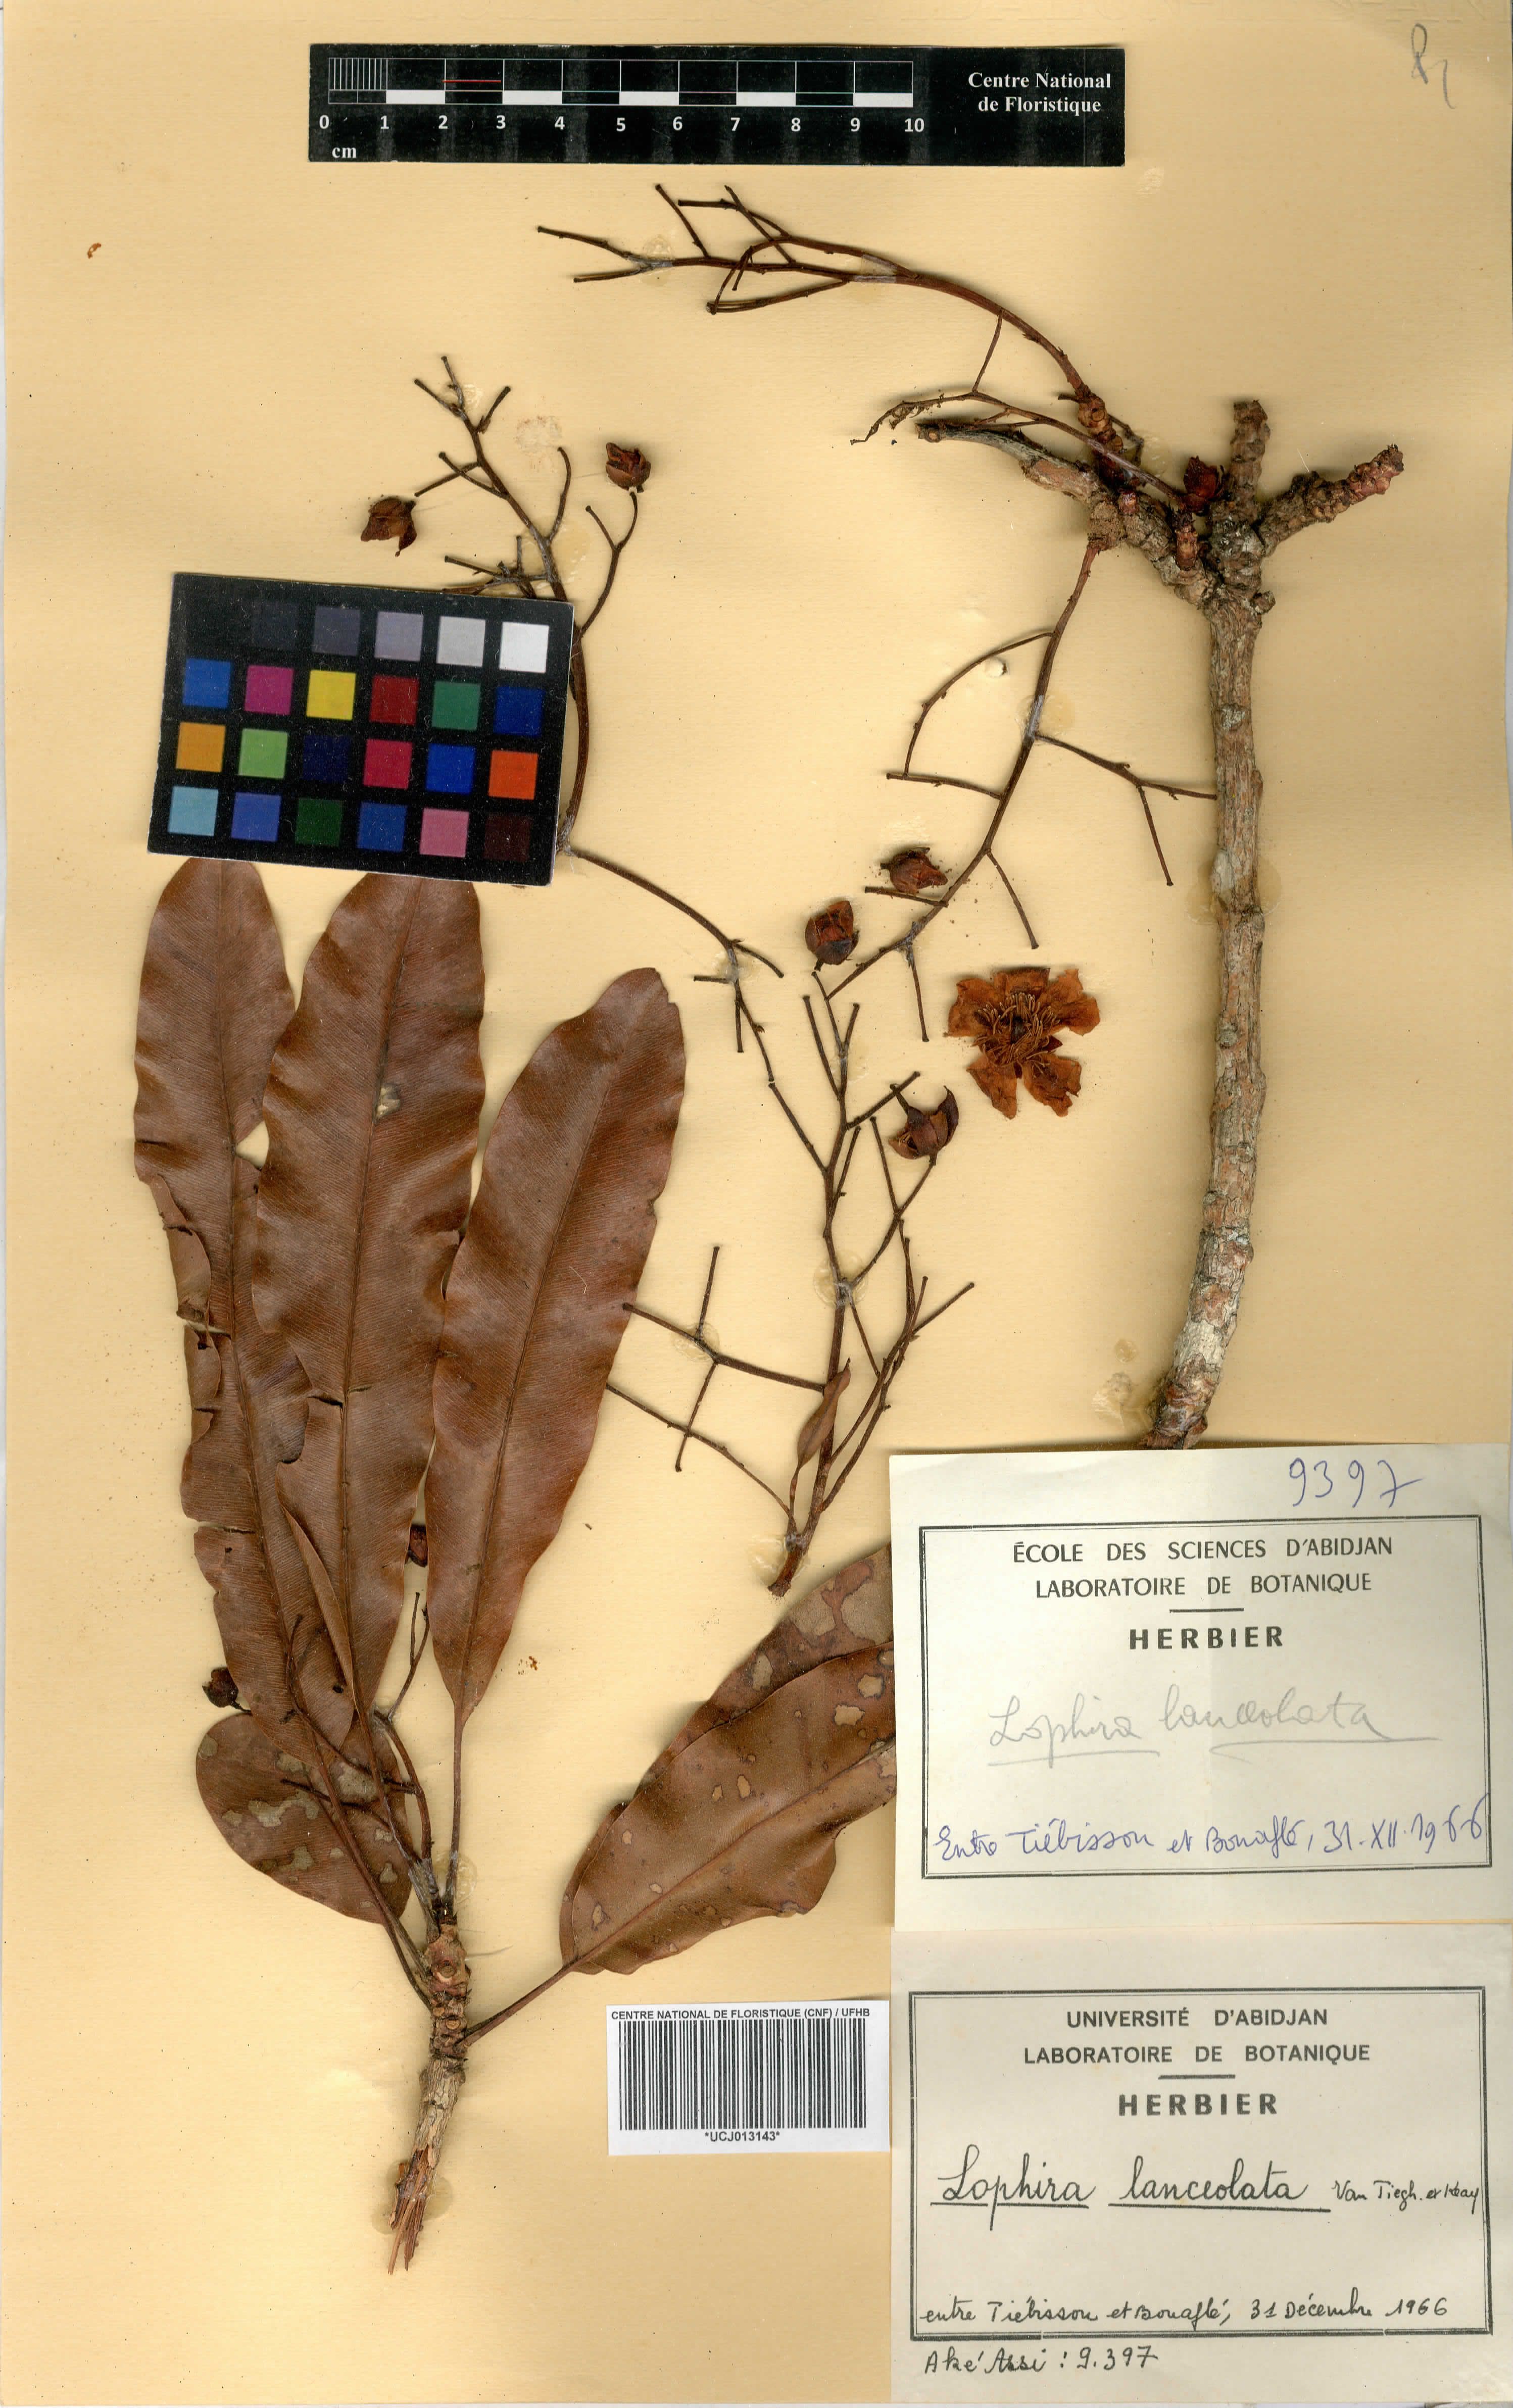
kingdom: Plantae
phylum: Tracheophyta
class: Magnoliopsida
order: Malpighiales
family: Ochnaceae
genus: Lophira
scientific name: Lophira lanceolata
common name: Dwarf red ironwood
